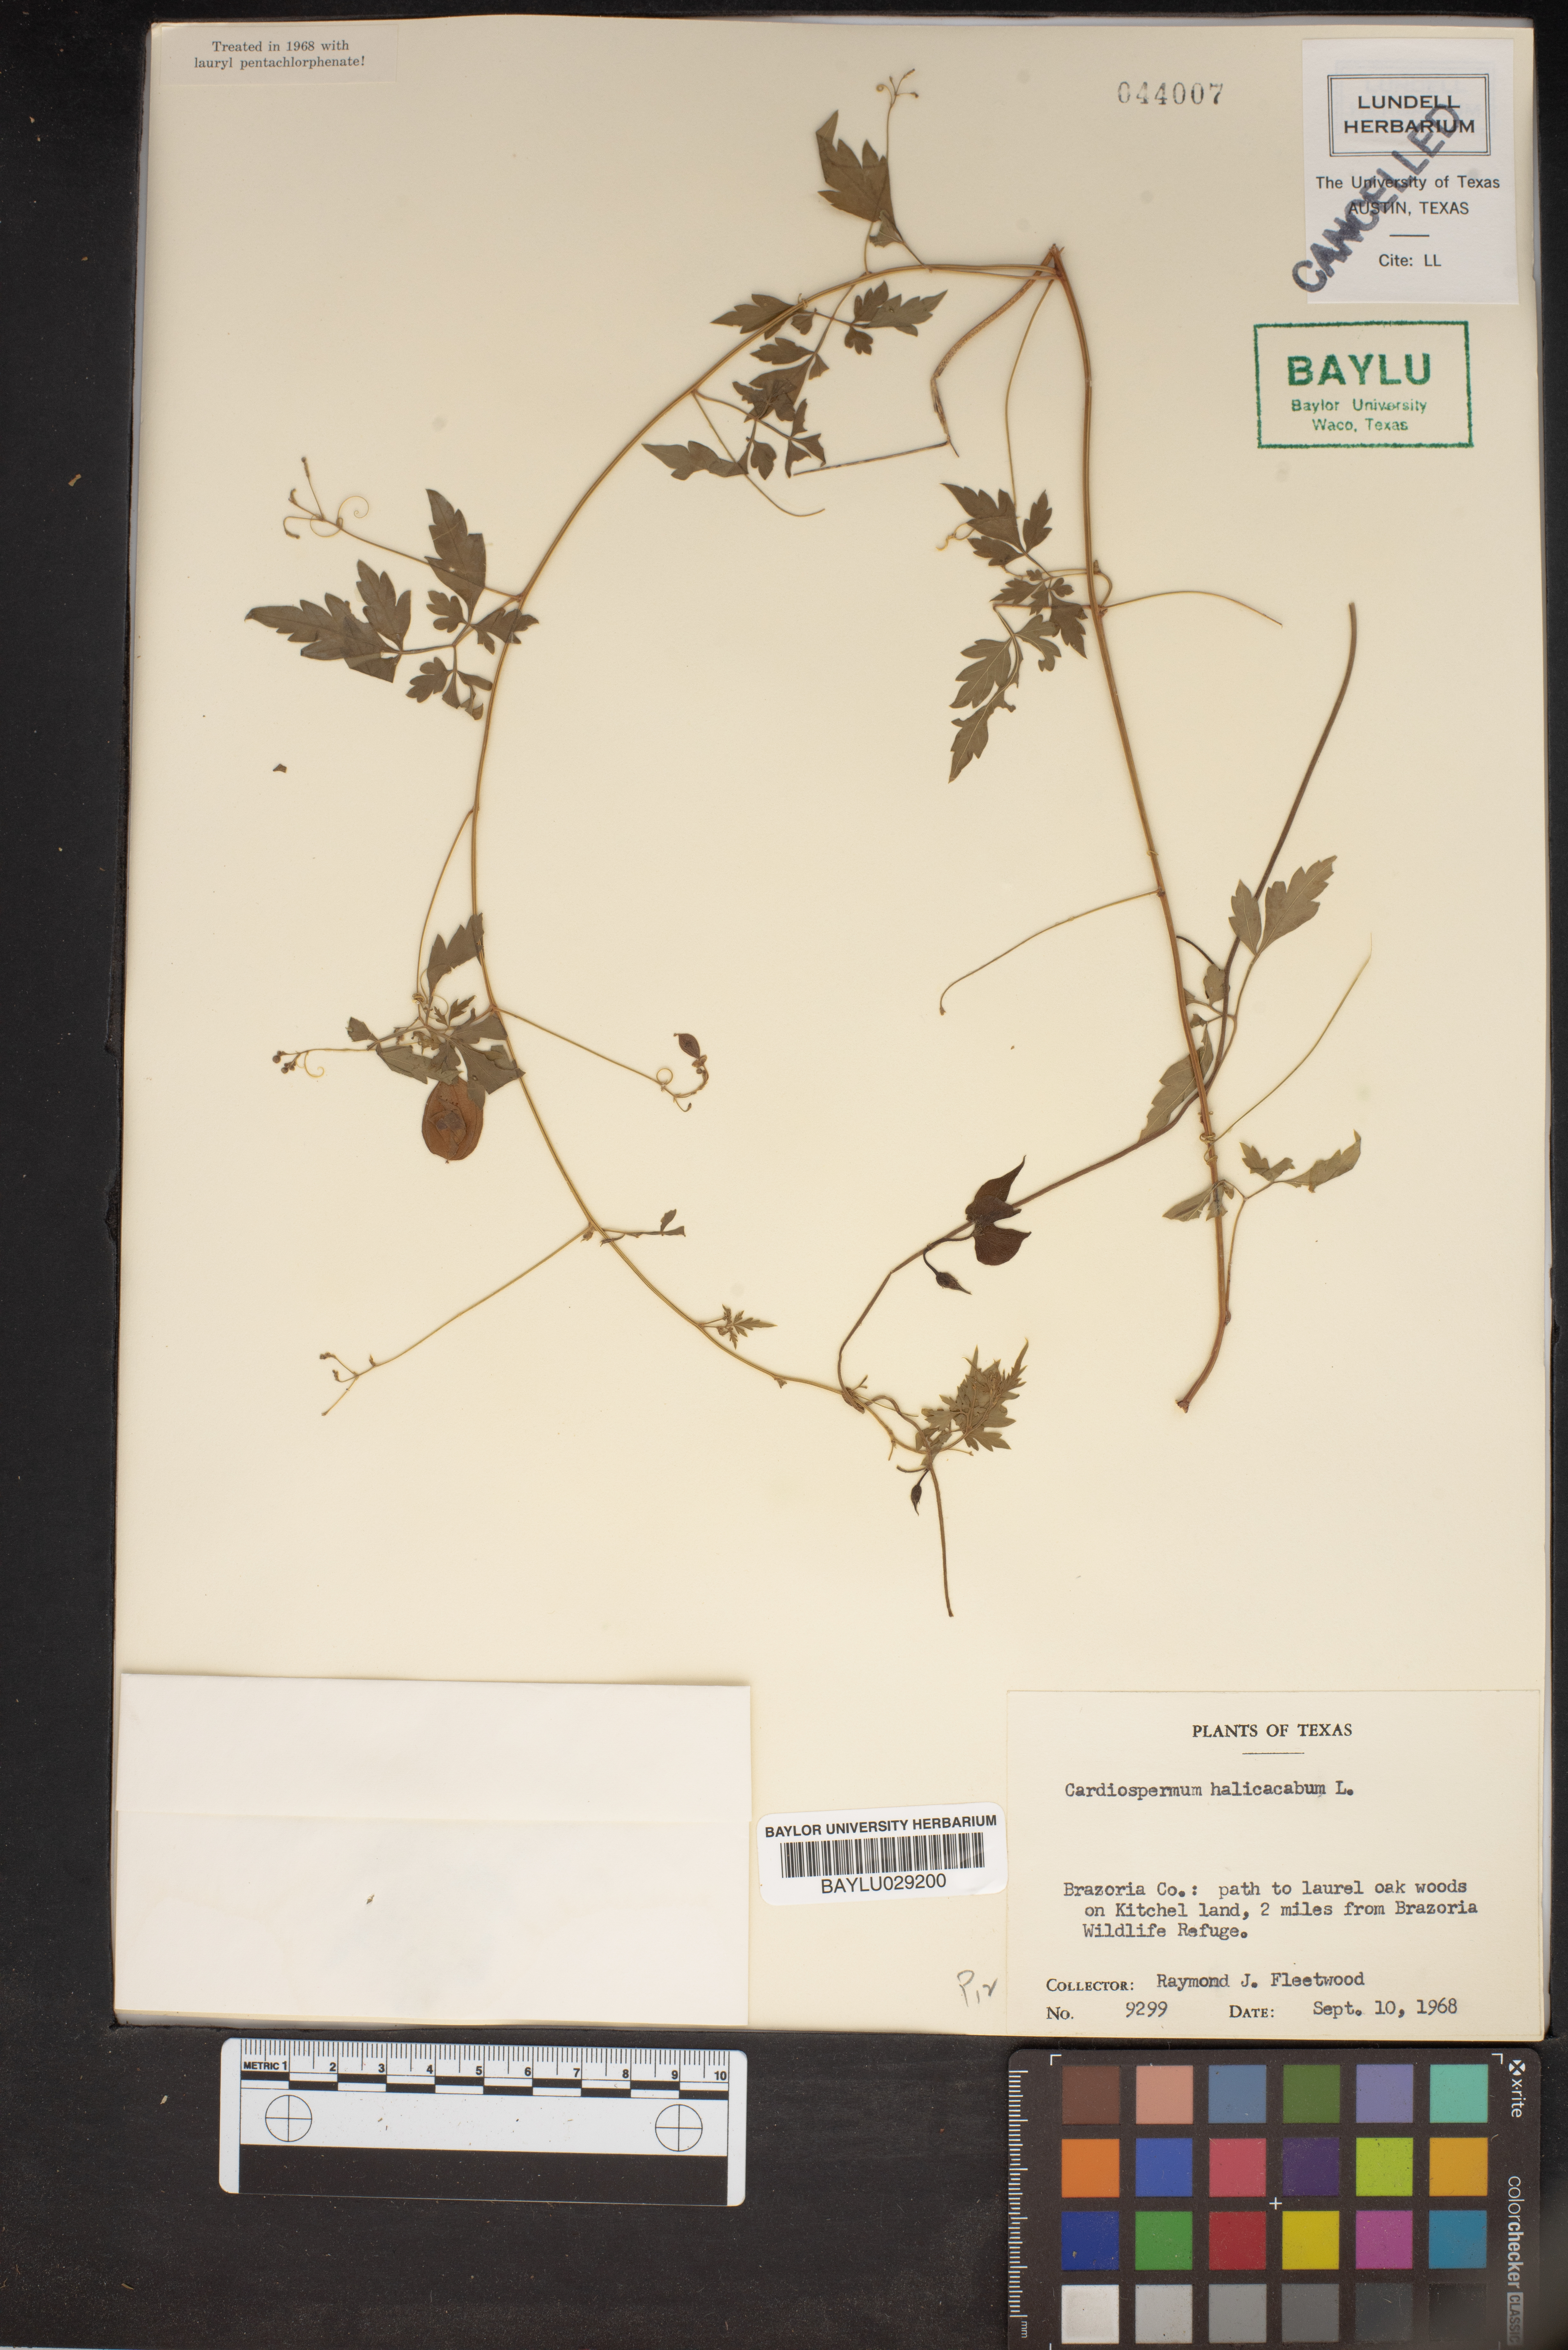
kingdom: Plantae
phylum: Tracheophyta
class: Magnoliopsida
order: Sapindales
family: Sapindaceae
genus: Cardiospermum
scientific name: Cardiospermum halicacabum
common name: Balloon vine
